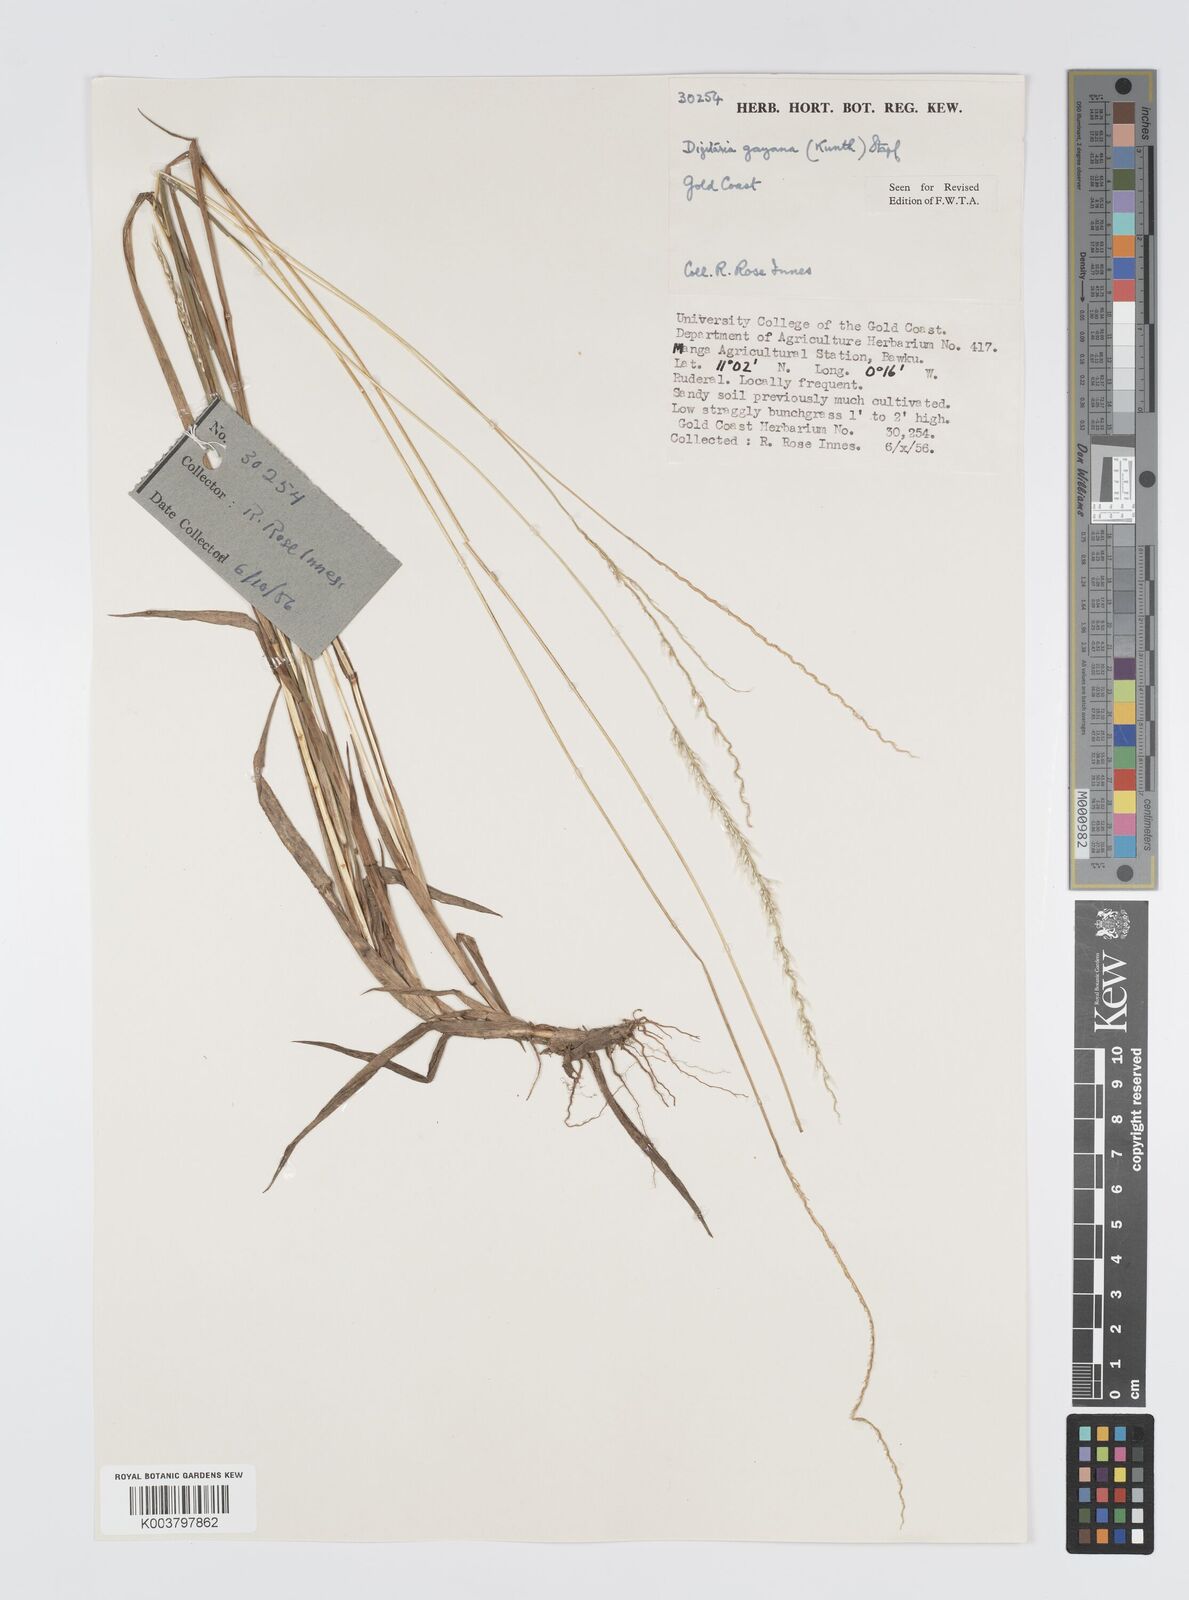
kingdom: Plantae
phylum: Tracheophyta
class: Liliopsida
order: Poales
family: Poaceae
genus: Digitaria
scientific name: Digitaria gayana
